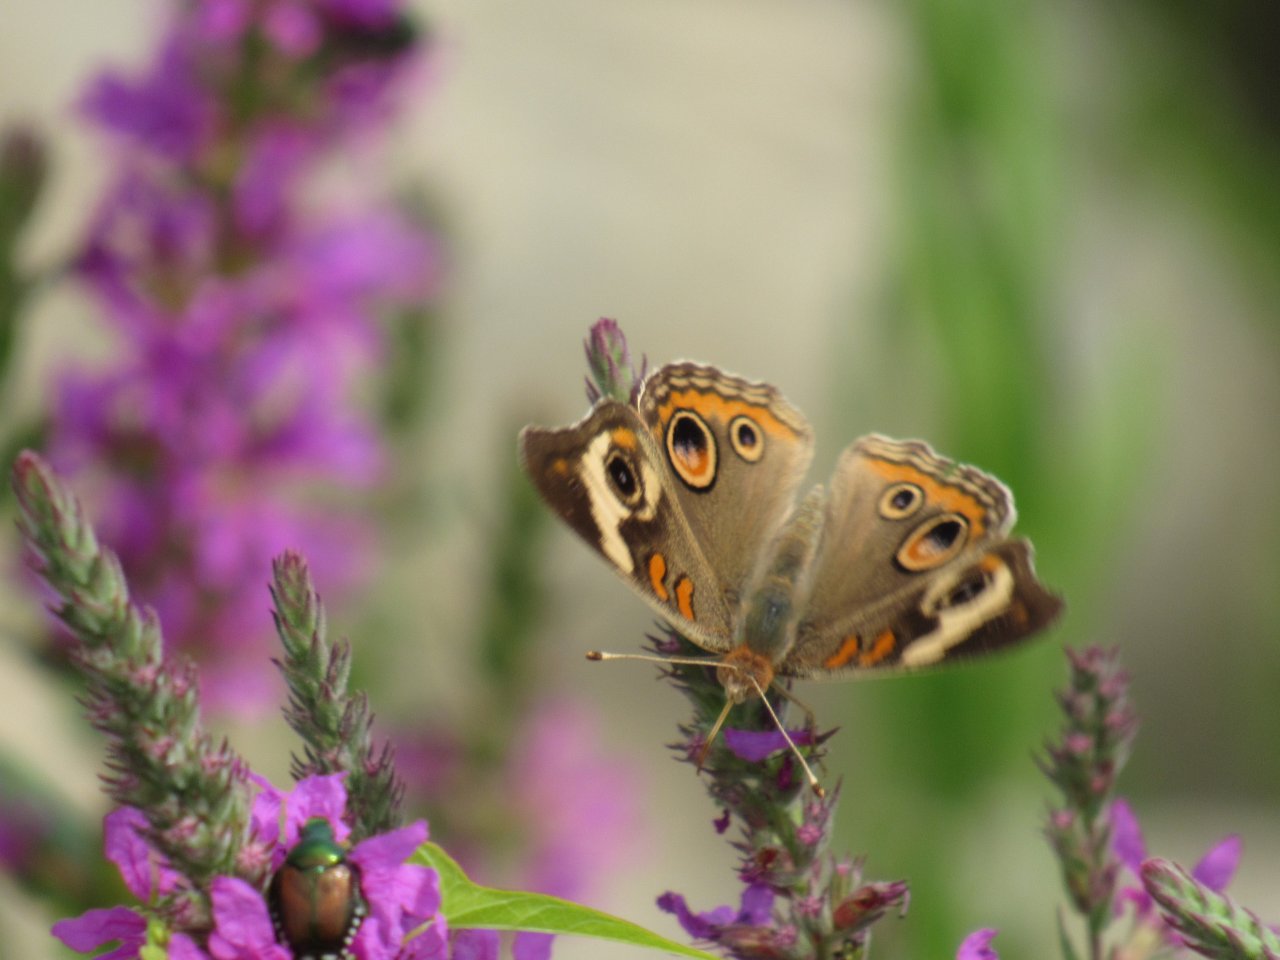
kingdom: Animalia
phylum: Arthropoda
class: Insecta
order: Lepidoptera
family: Nymphalidae
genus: Junonia
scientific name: Junonia coenia
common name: Common Buckeye
